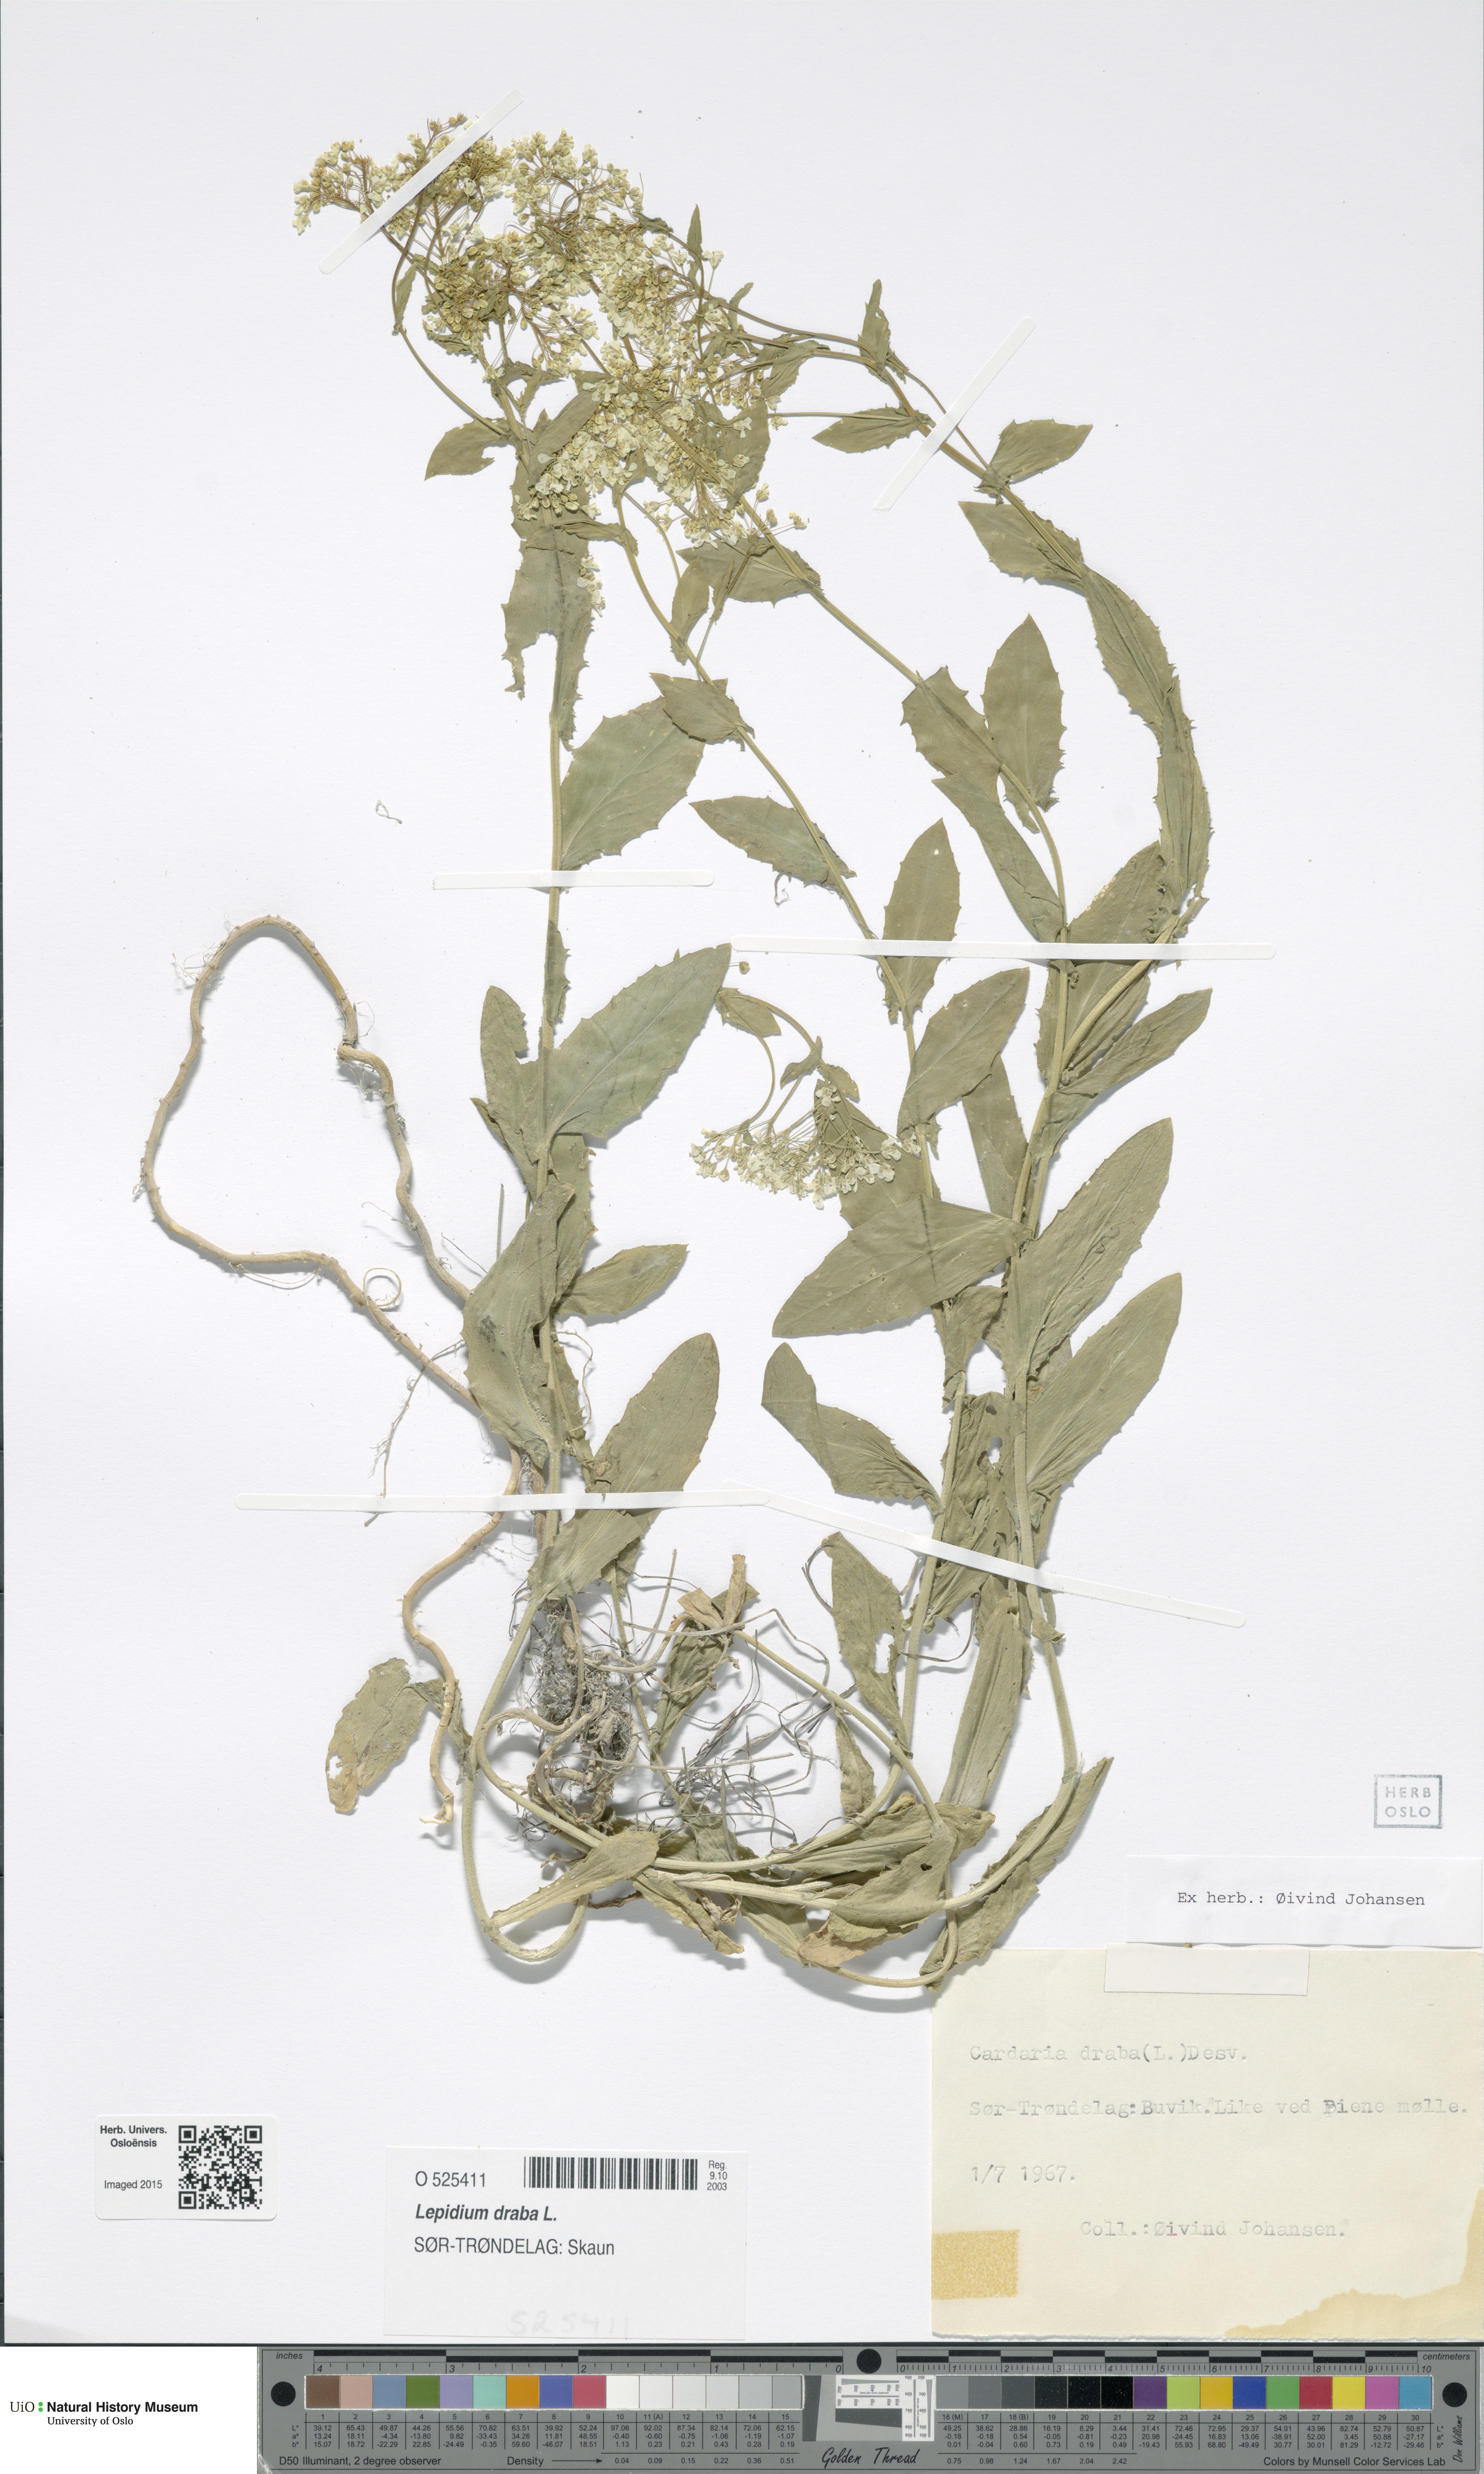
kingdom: Plantae
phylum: Tracheophyta
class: Magnoliopsida
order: Brassicales
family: Brassicaceae
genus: Lepidium
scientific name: Lepidium draba
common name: Hoary cress
